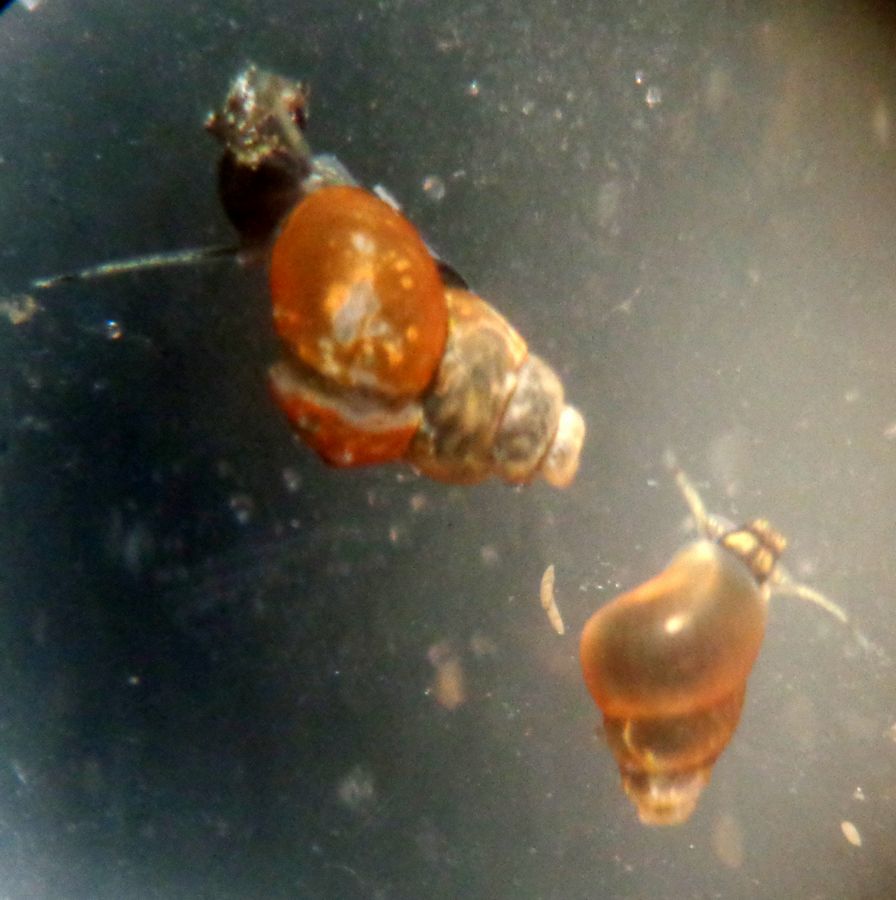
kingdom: Animalia
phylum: Mollusca
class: Gastropoda
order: Littorinimorpha
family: Hydrobiidae
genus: Peringia
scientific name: Peringia ulvae
